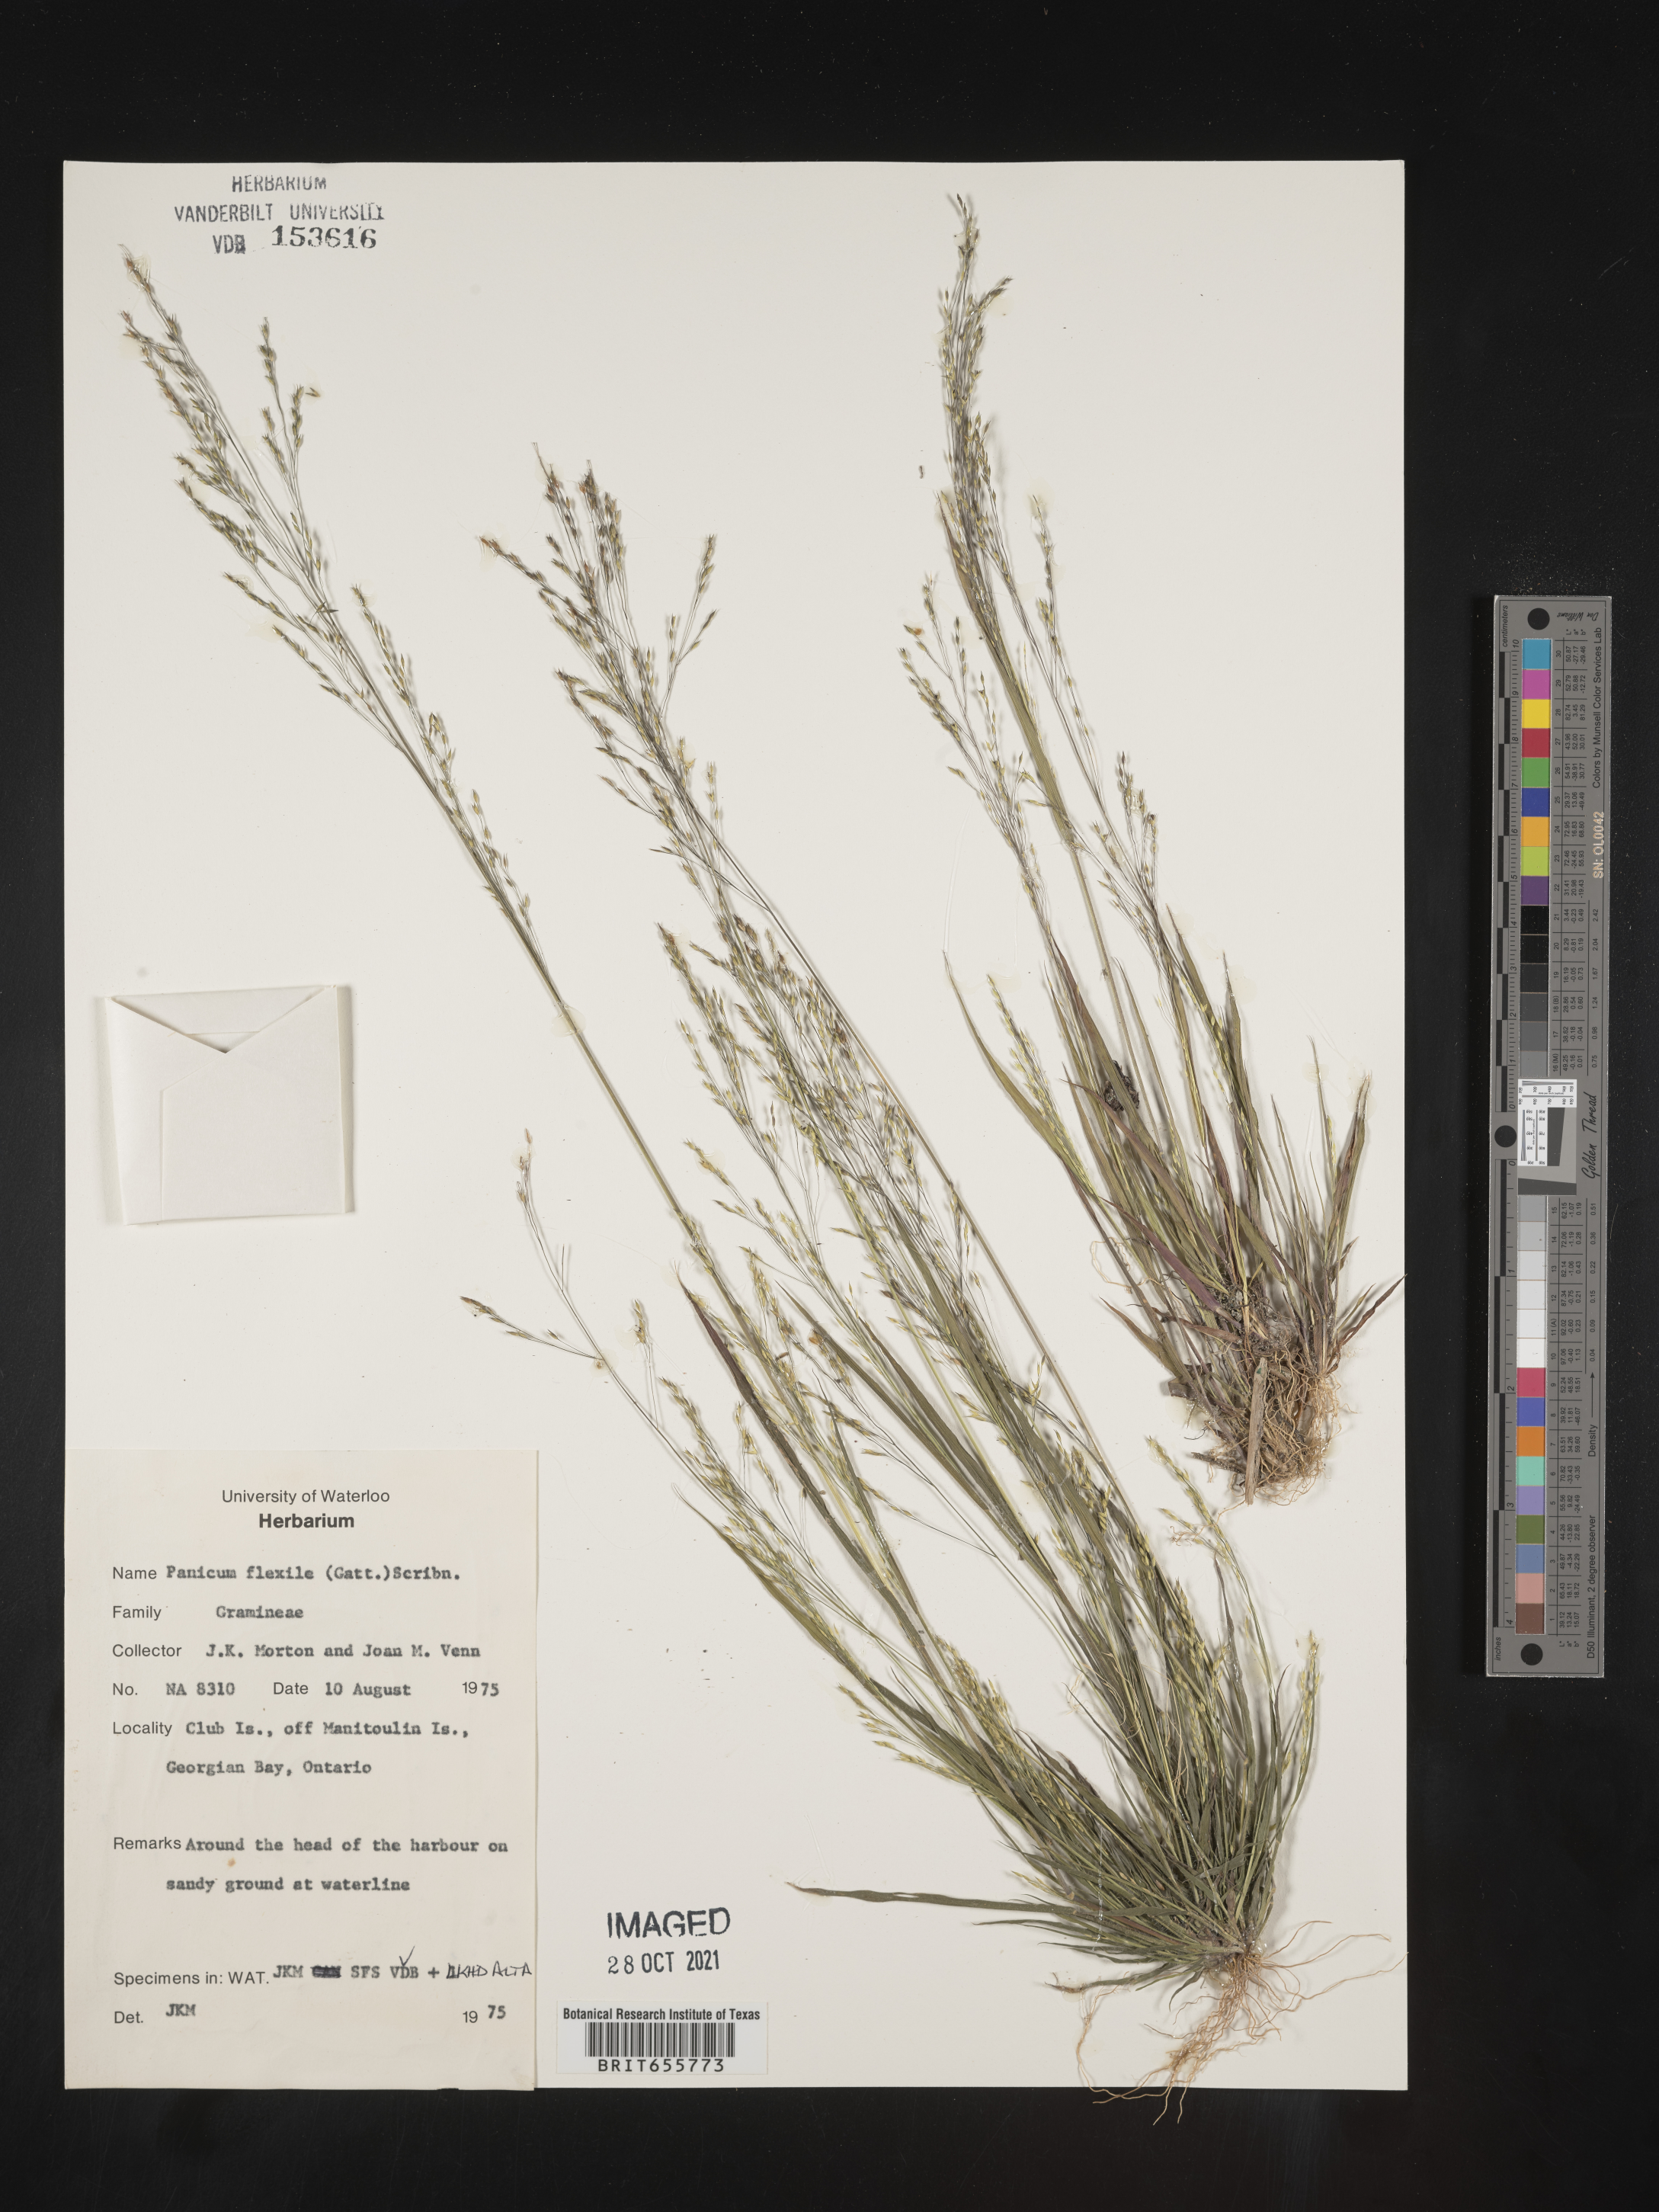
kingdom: Plantae
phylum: Tracheophyta
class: Liliopsida
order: Poales
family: Poaceae
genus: Panicum
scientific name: Panicum
